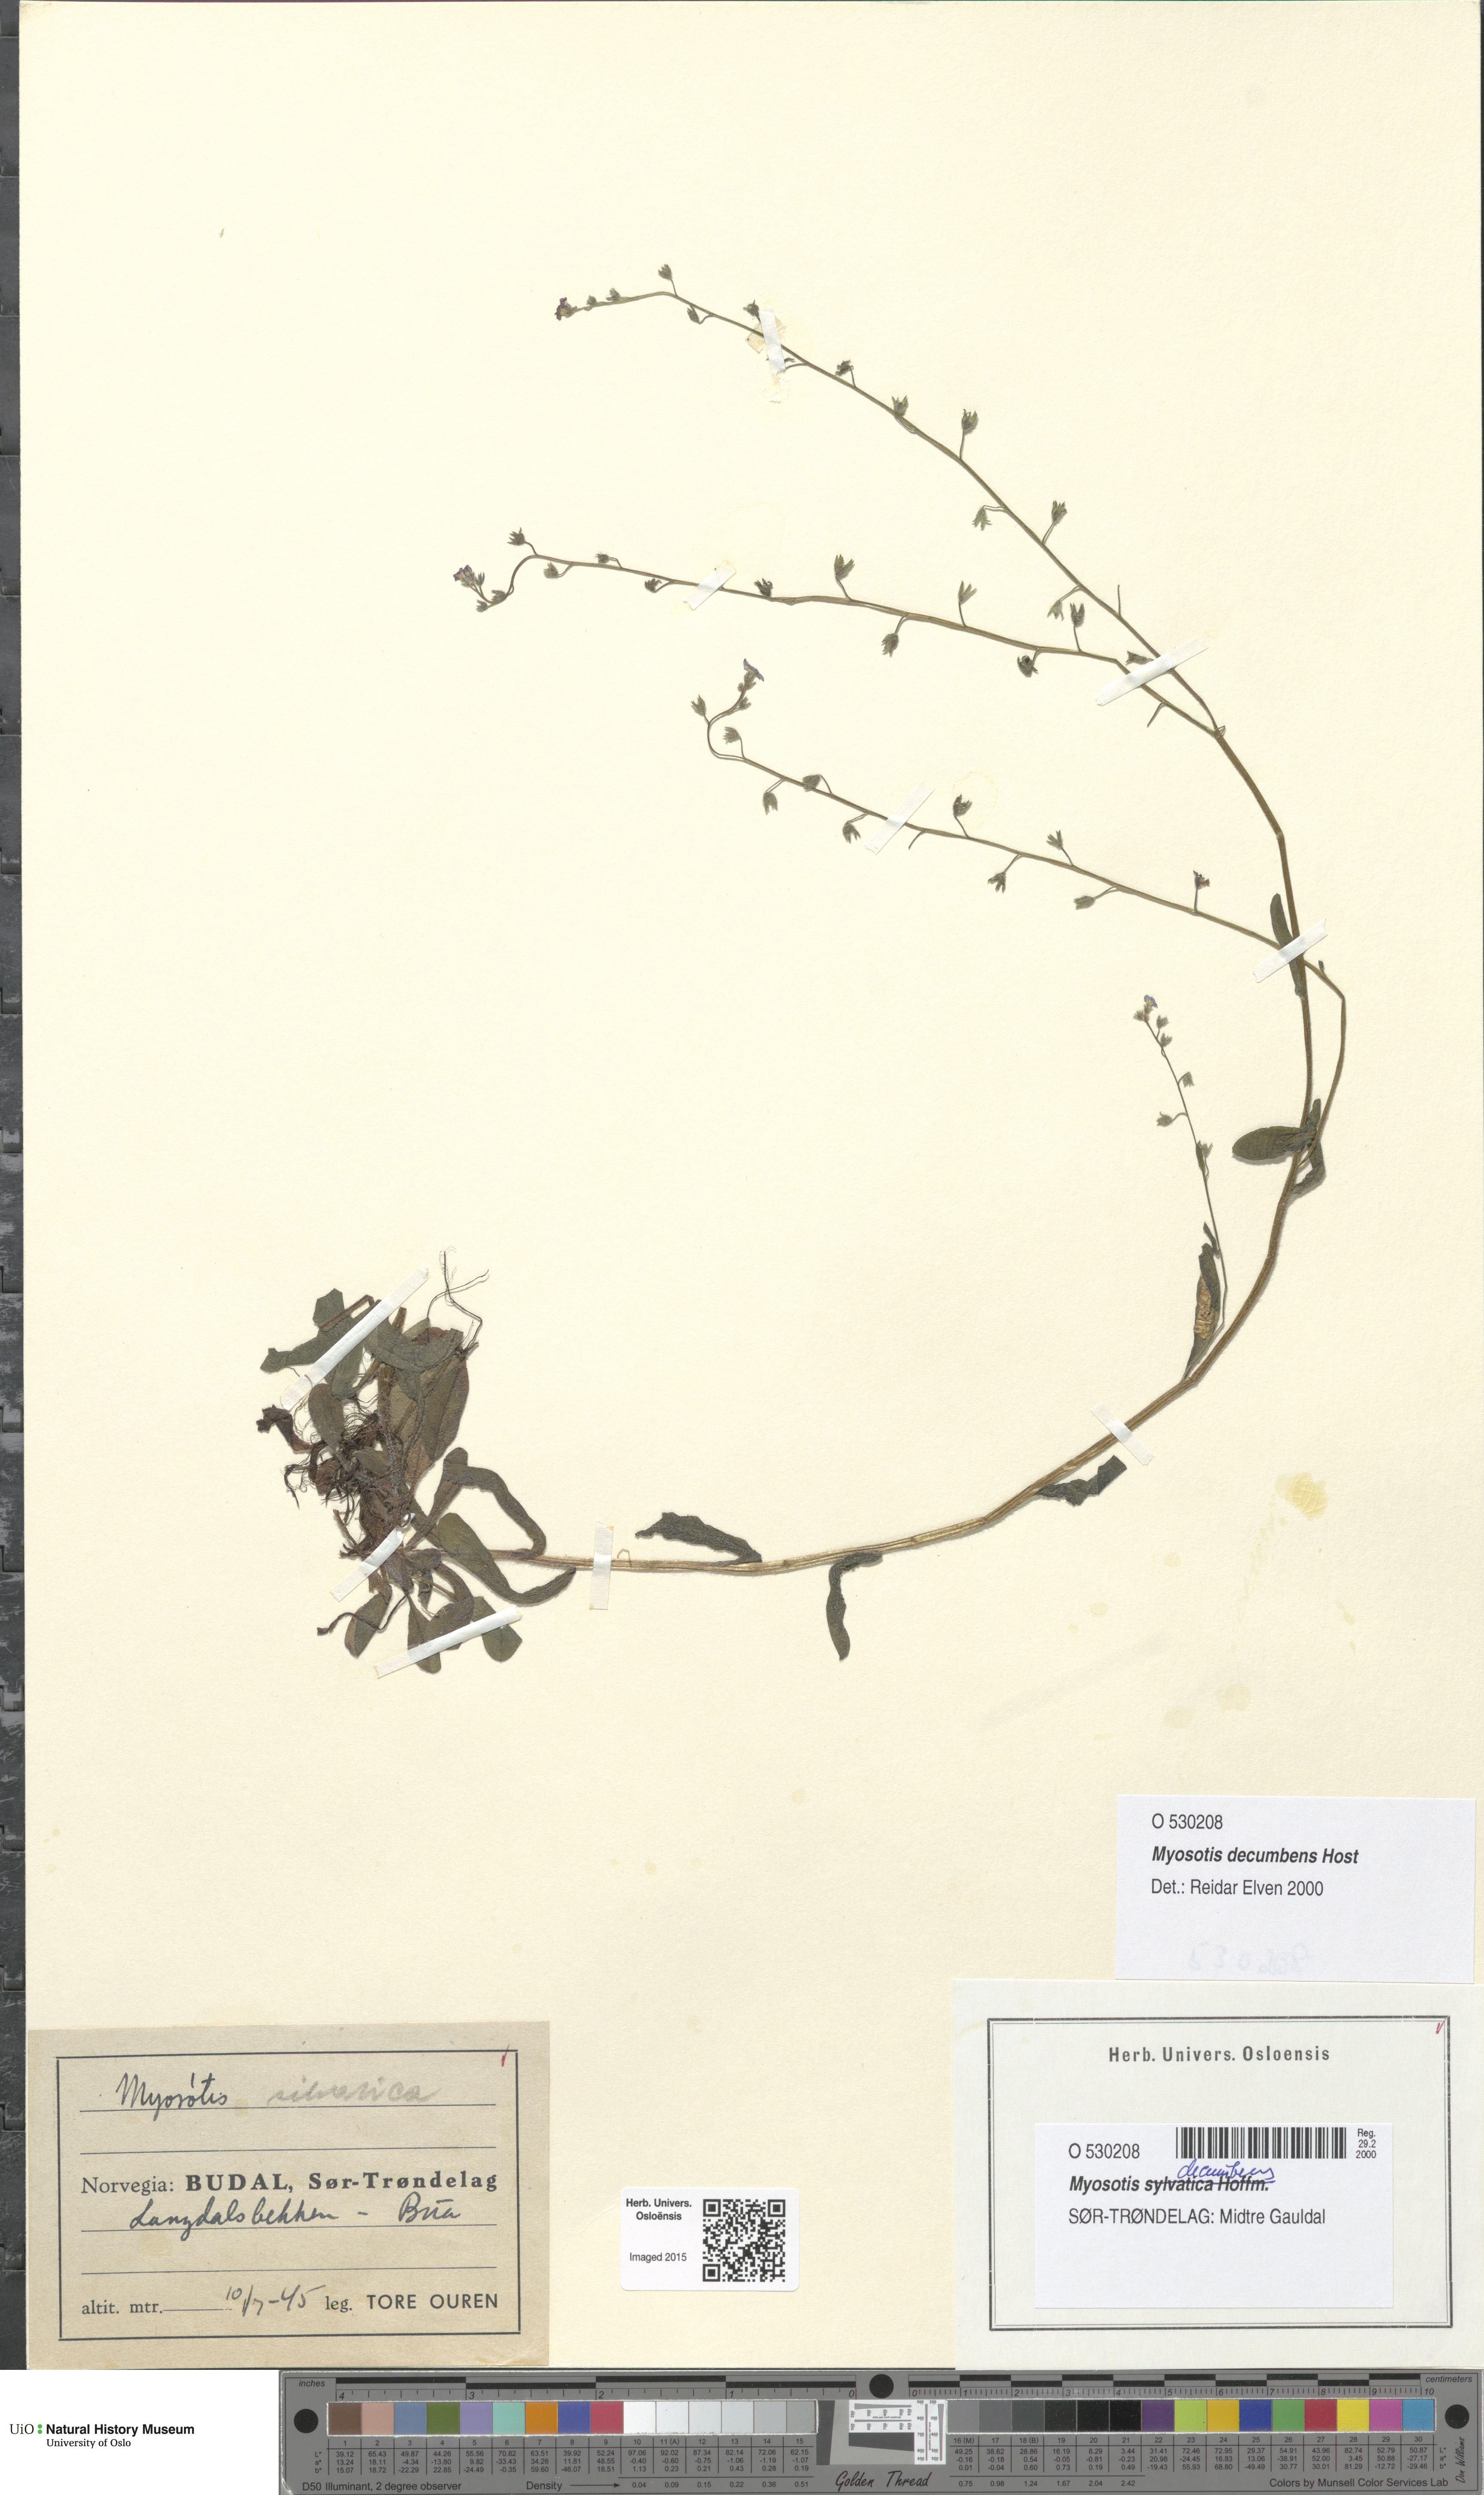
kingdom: Plantae
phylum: Tracheophyta
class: Magnoliopsida
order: Boraginales
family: Boraginaceae
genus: Myosotis
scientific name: Myosotis decumbens
